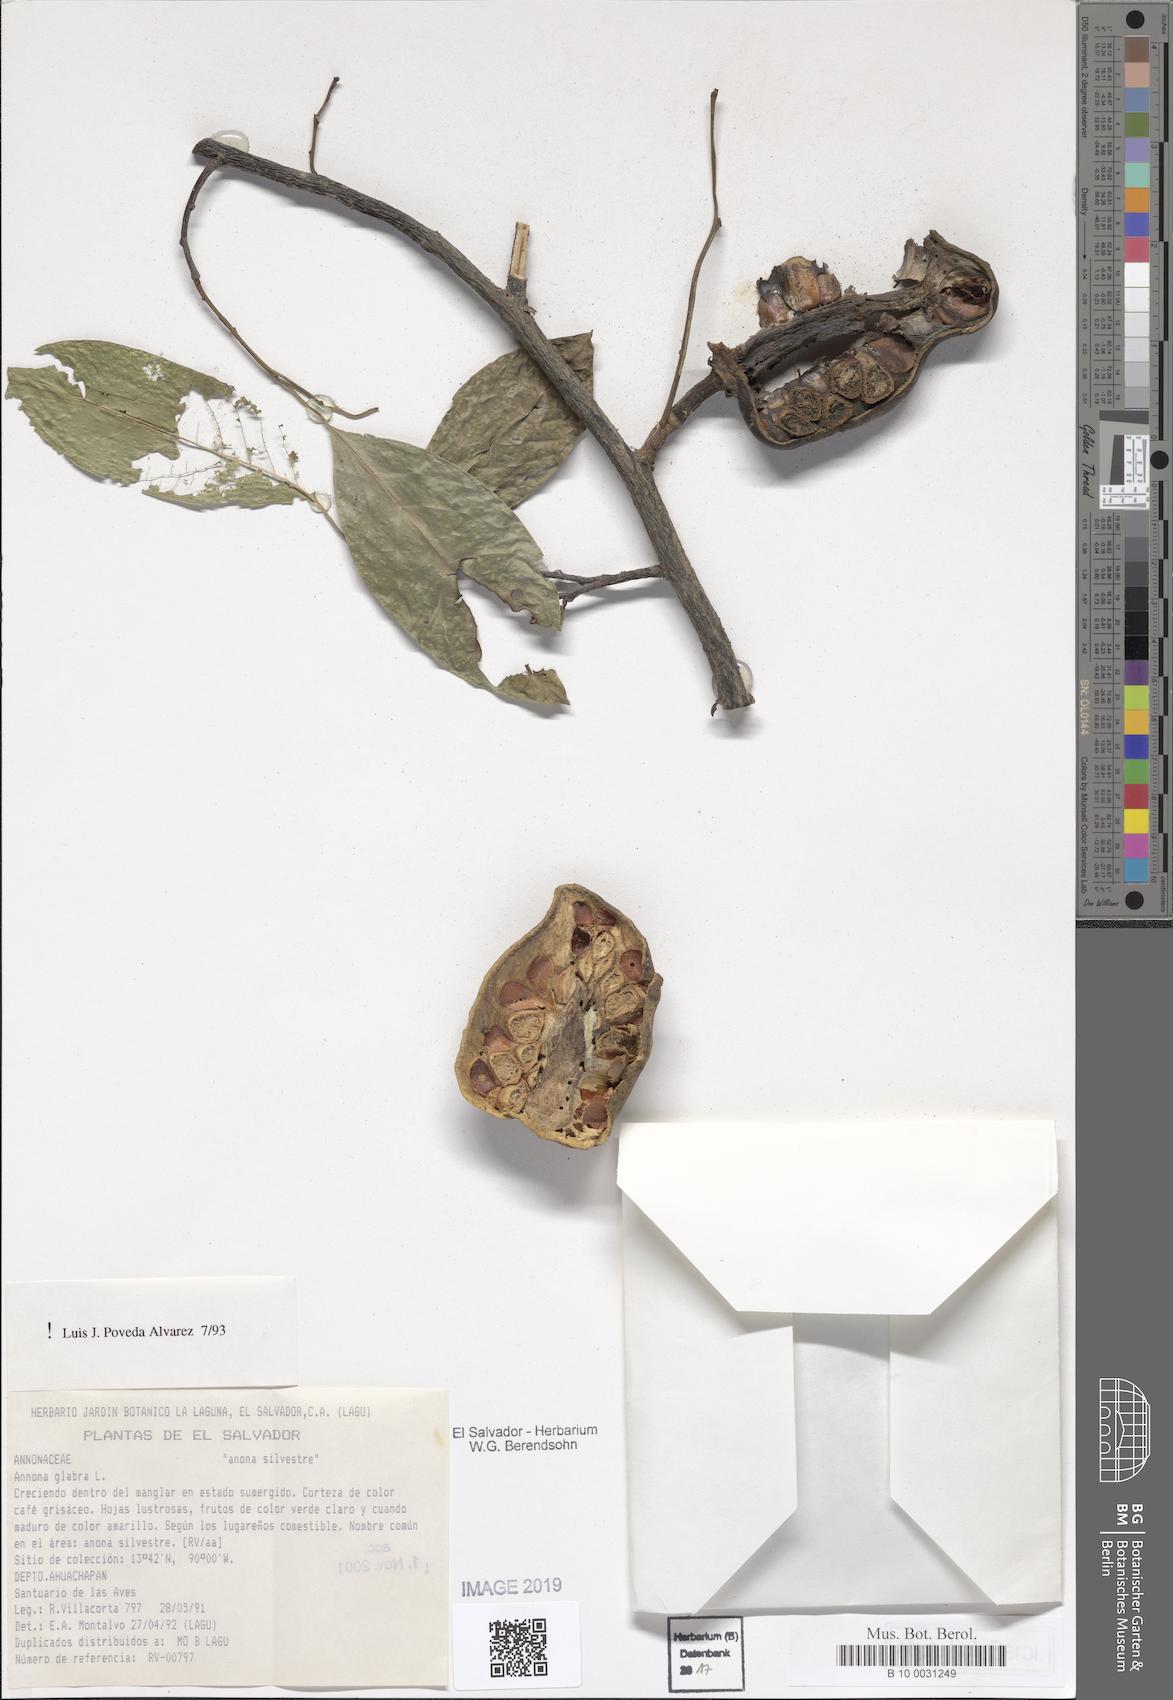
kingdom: Plantae
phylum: Tracheophyta
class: Magnoliopsida
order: Magnoliales
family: Annonaceae
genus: Annona
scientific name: Annona glabra
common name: Monkey apple
